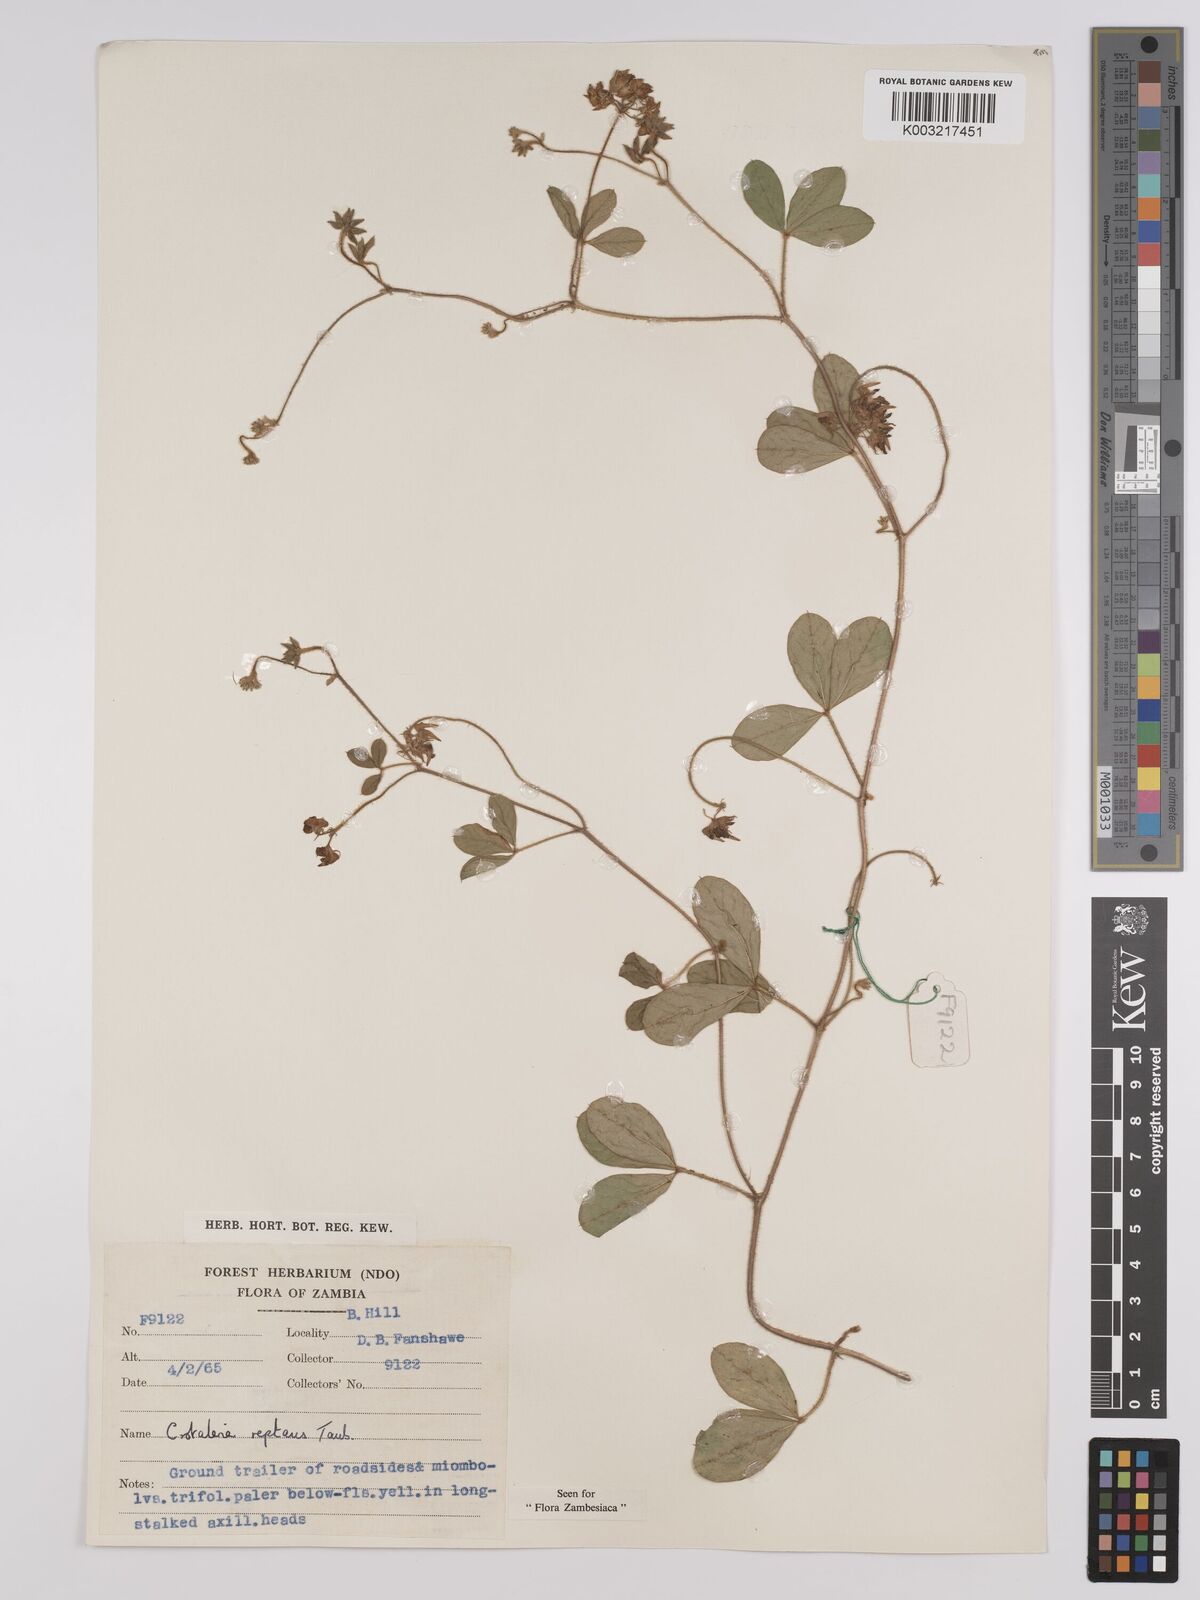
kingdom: Plantae
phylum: Tracheophyta
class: Magnoliopsida
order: Fabales
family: Fabaceae
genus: Crotalaria
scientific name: Crotalaria reptans
